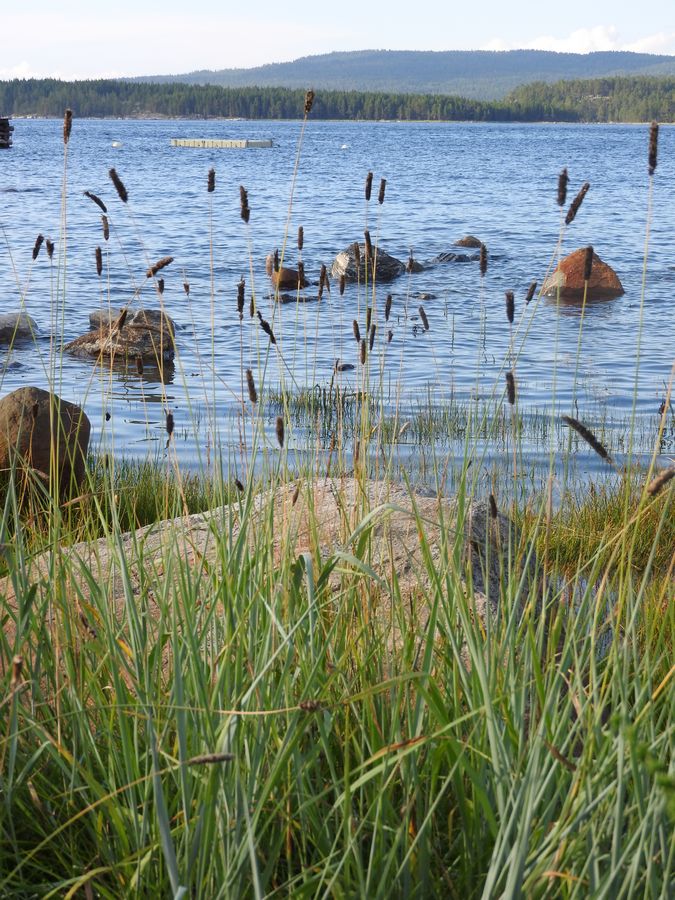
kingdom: Plantae
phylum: Tracheophyta
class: Liliopsida
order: Poales
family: Poaceae
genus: Alopecurus
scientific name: Alopecurus arundinaceus
